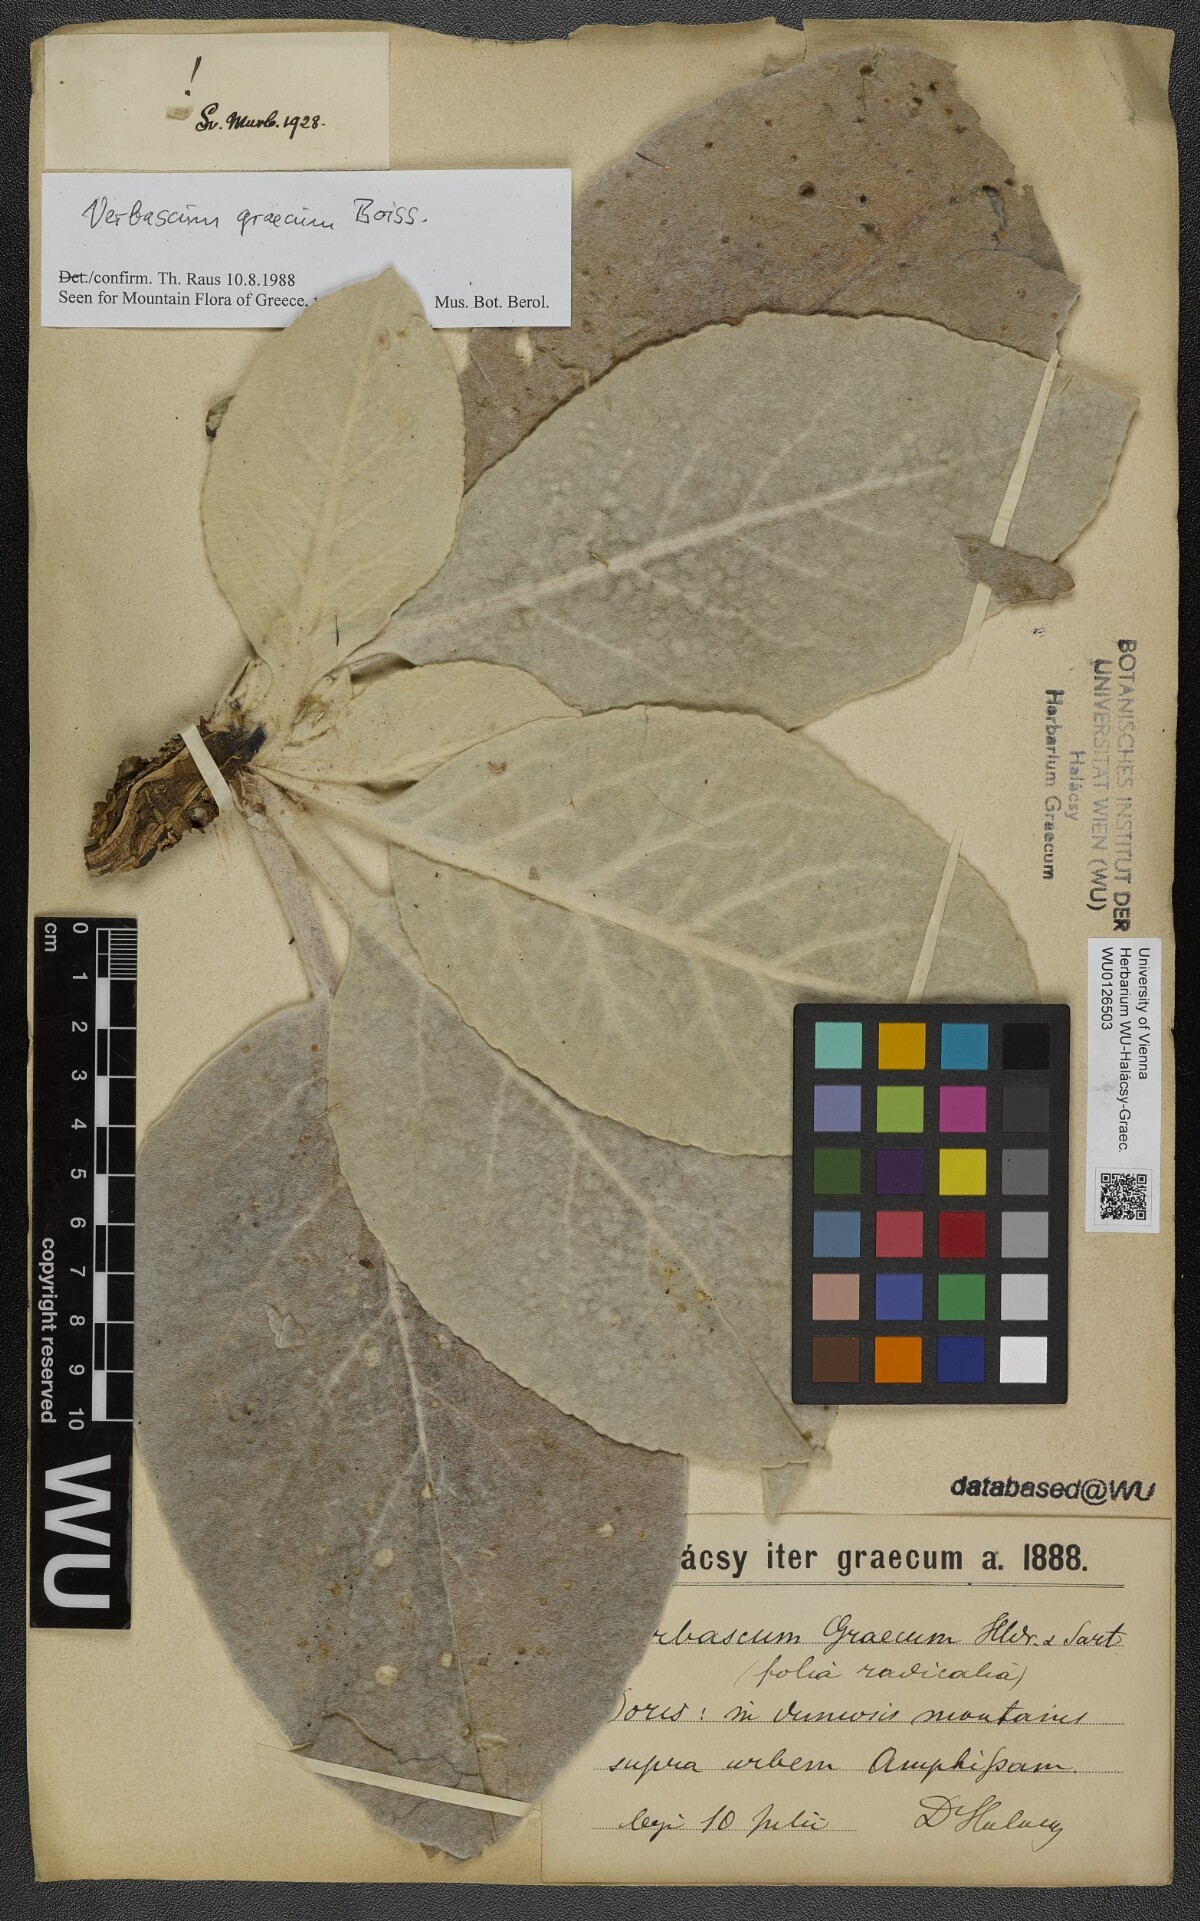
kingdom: Plantae
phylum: Tracheophyta
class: Magnoliopsida
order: Lamiales
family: Scrophulariaceae
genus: Verbascum
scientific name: Verbascum graecum
